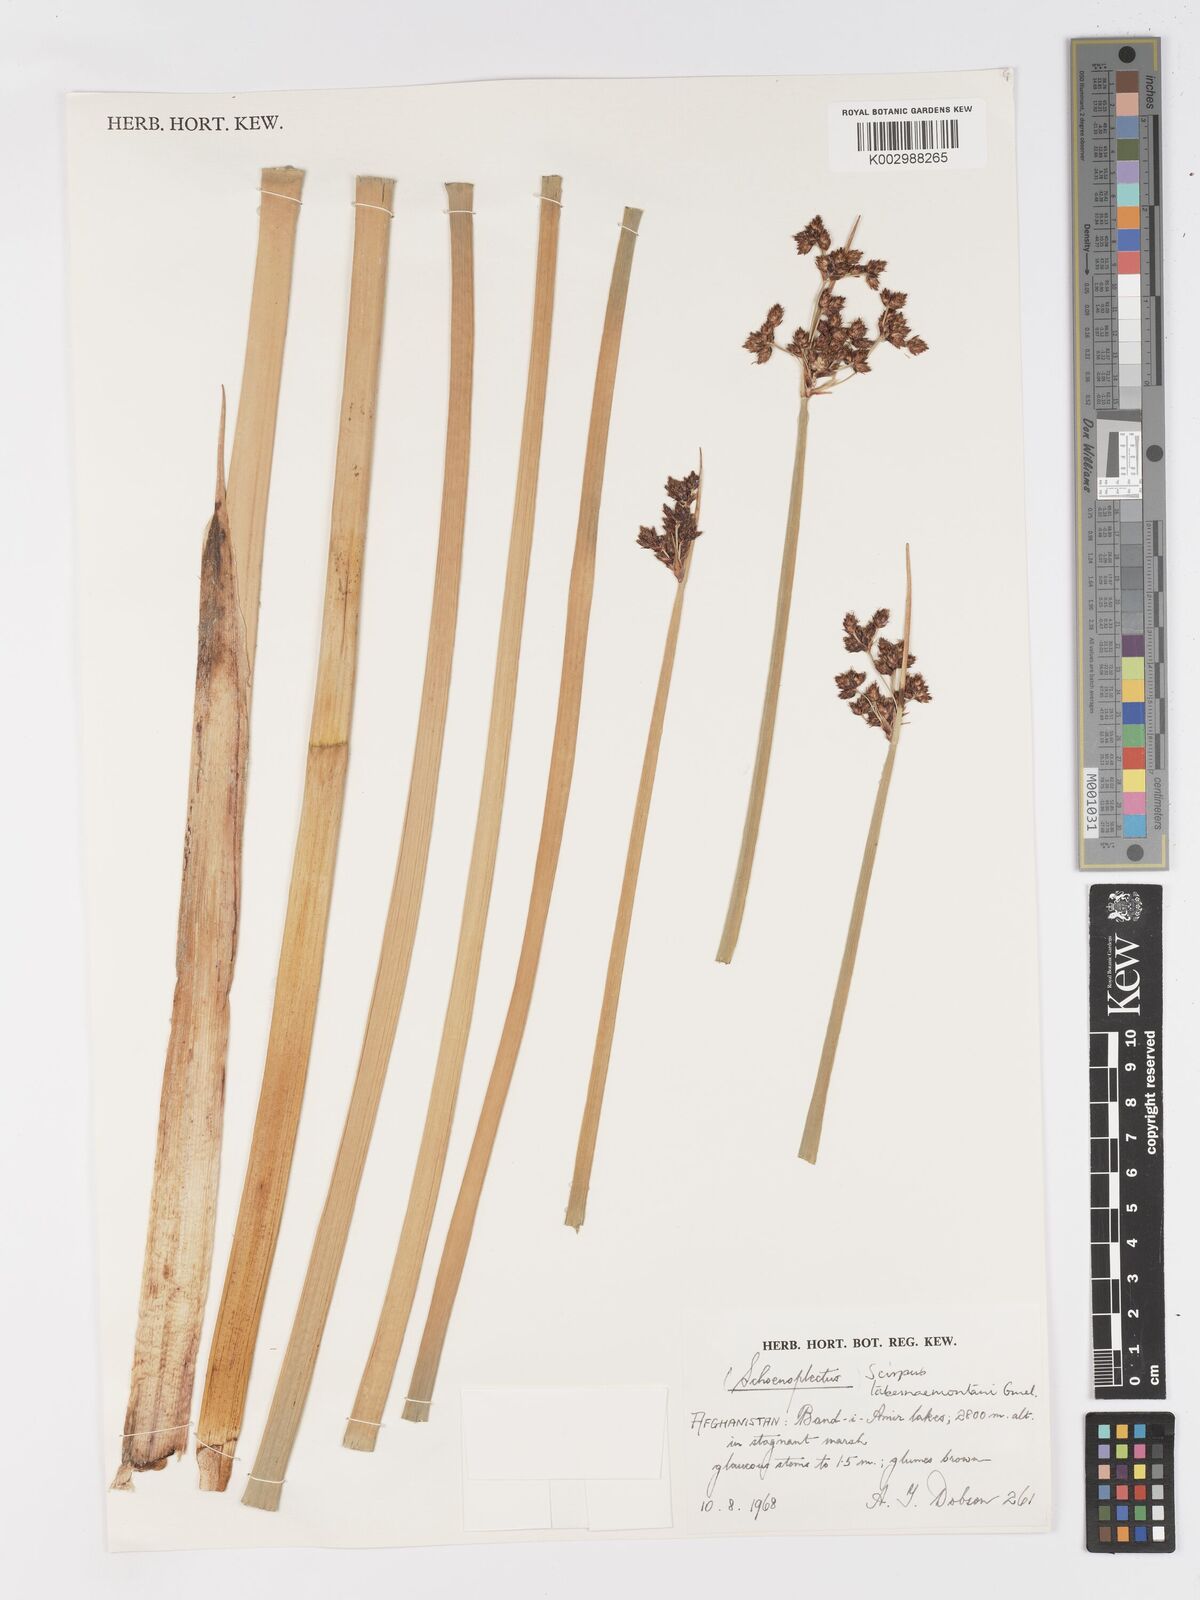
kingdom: Plantae
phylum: Tracheophyta
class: Liliopsida
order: Poales
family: Cyperaceae
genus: Schoenoplectus
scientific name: Schoenoplectus tabernaemontani
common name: Grey club-rush
